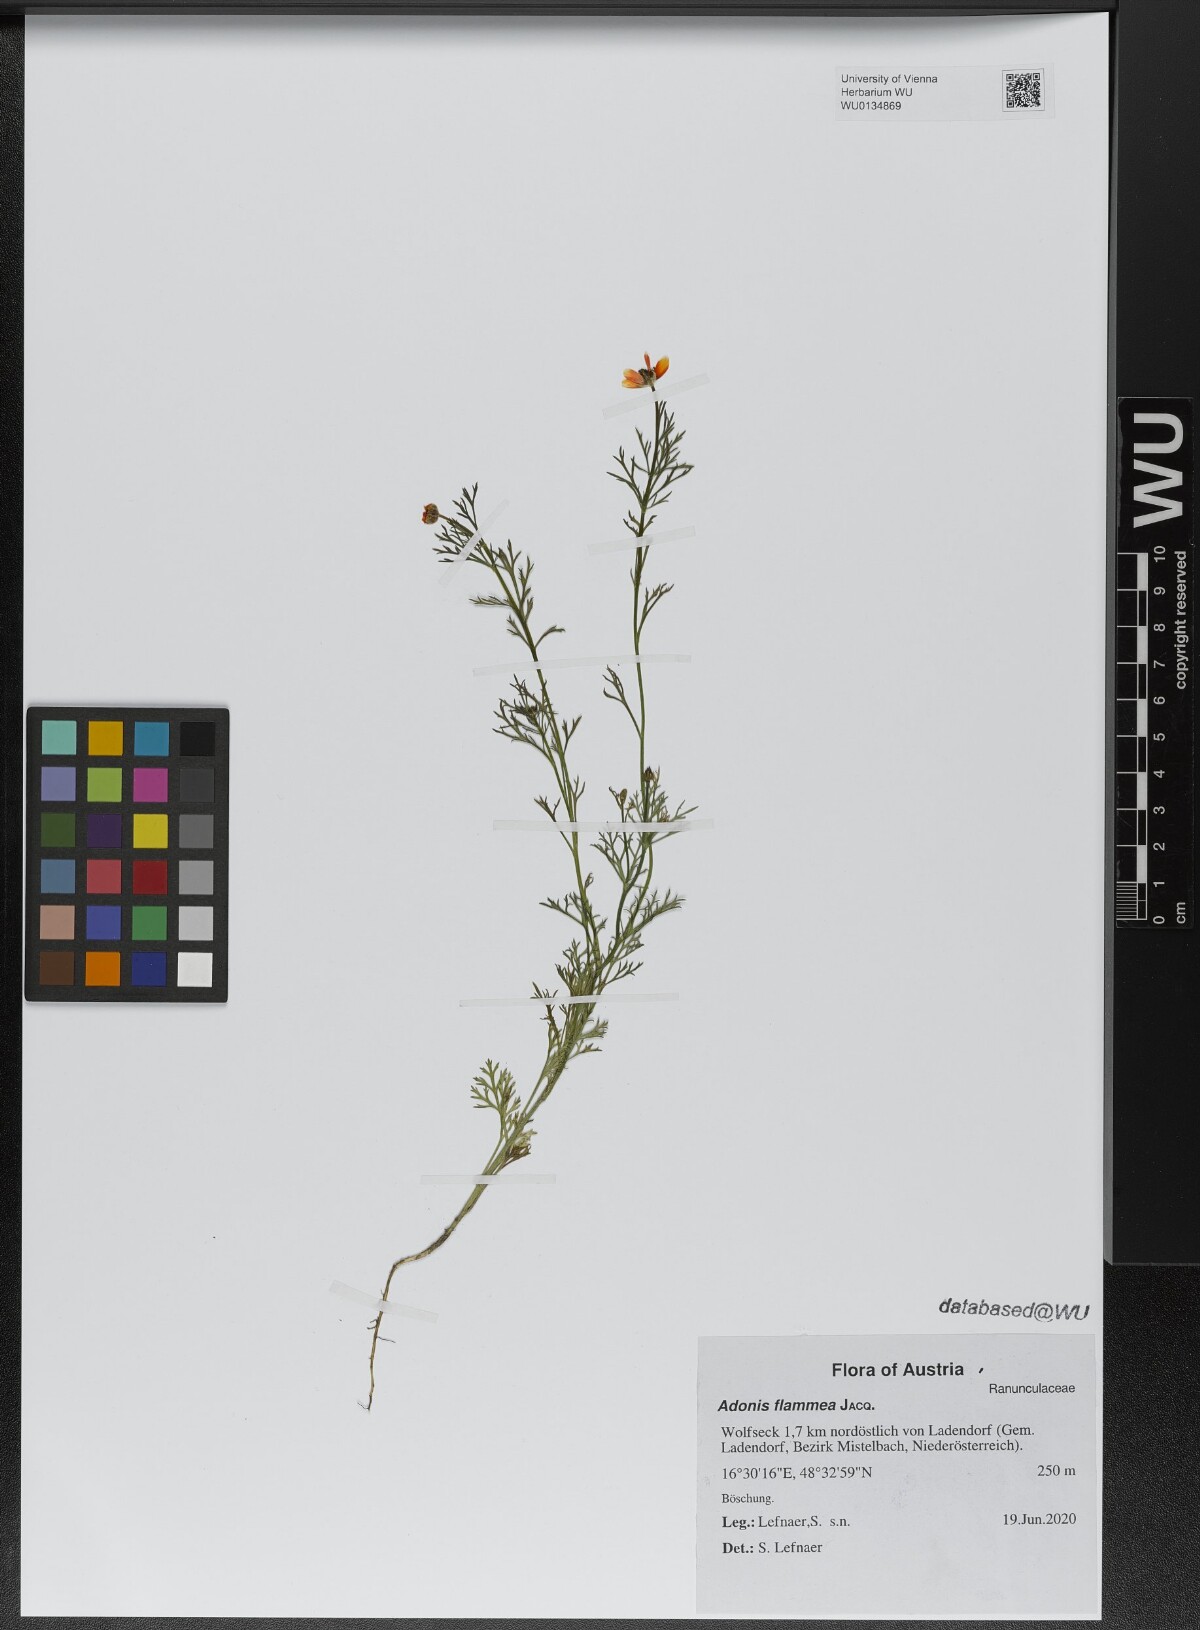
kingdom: Plantae
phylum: Tracheophyta
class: Magnoliopsida
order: Ranunculales
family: Ranunculaceae
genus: Adonis
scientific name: Adonis flammea
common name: Large pheasant's-eye
